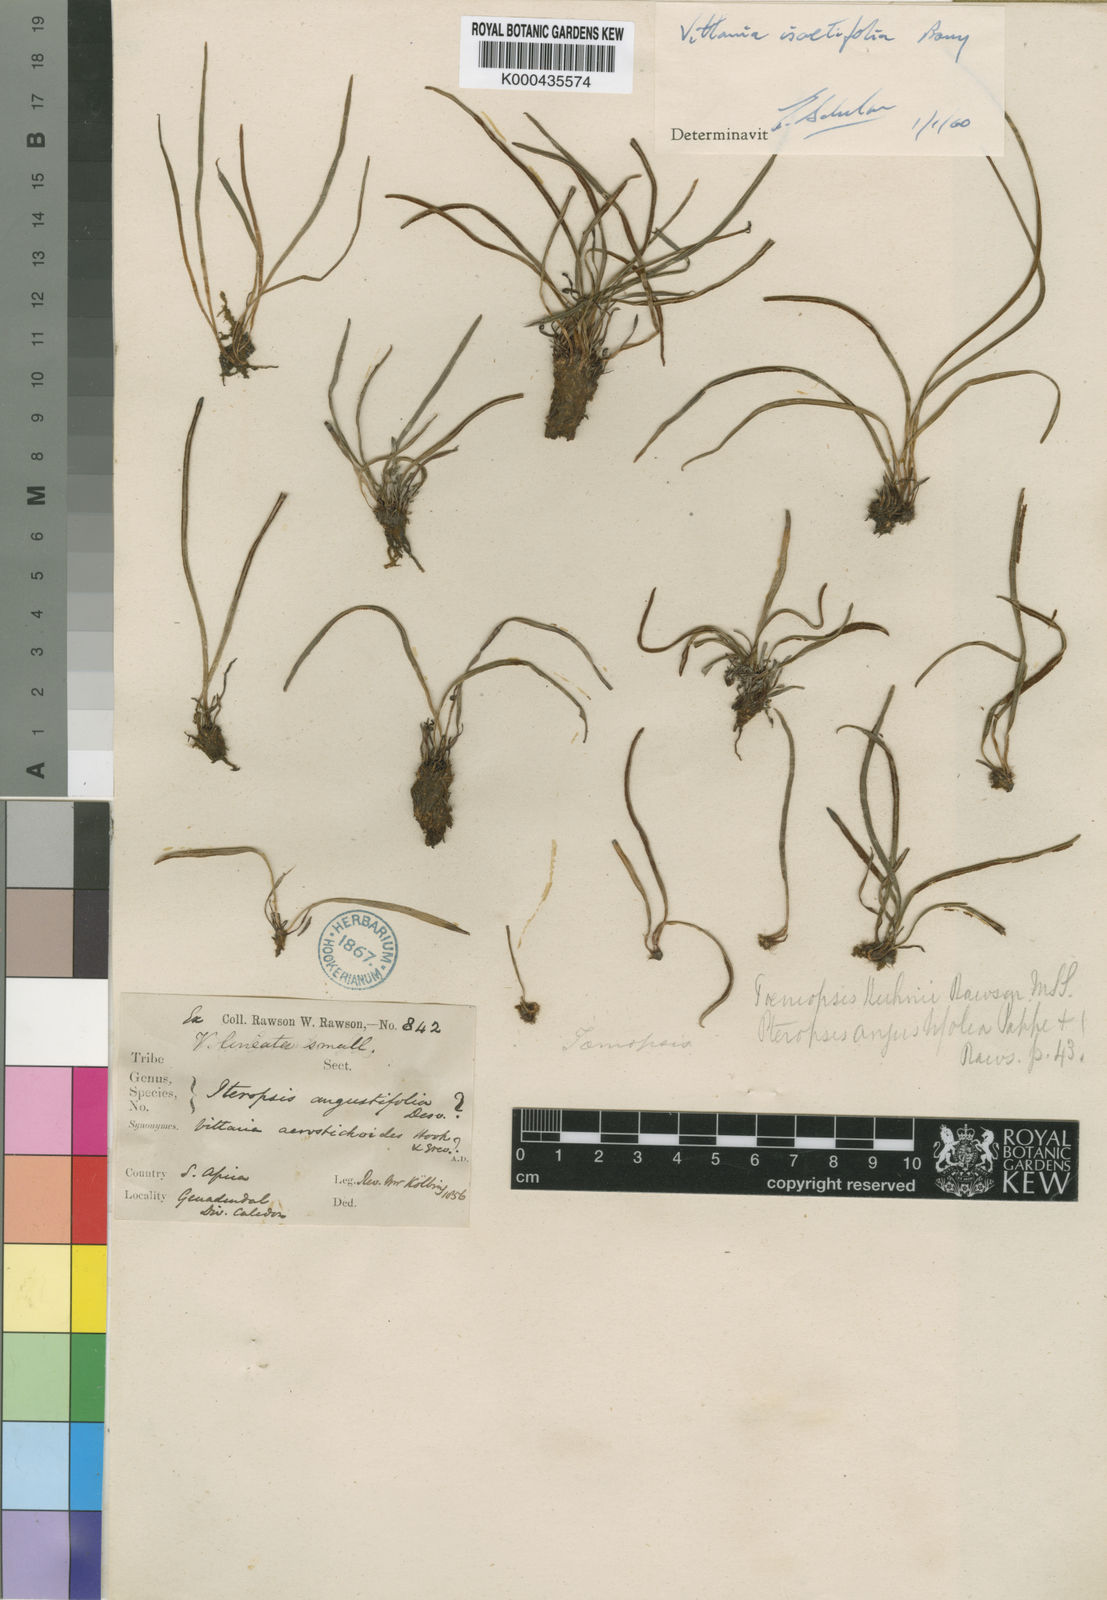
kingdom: Plantae
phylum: Tracheophyta
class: Polypodiopsida
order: Polypodiales
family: Pteridaceae
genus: Vittaria
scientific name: Vittaria isoetifolia
